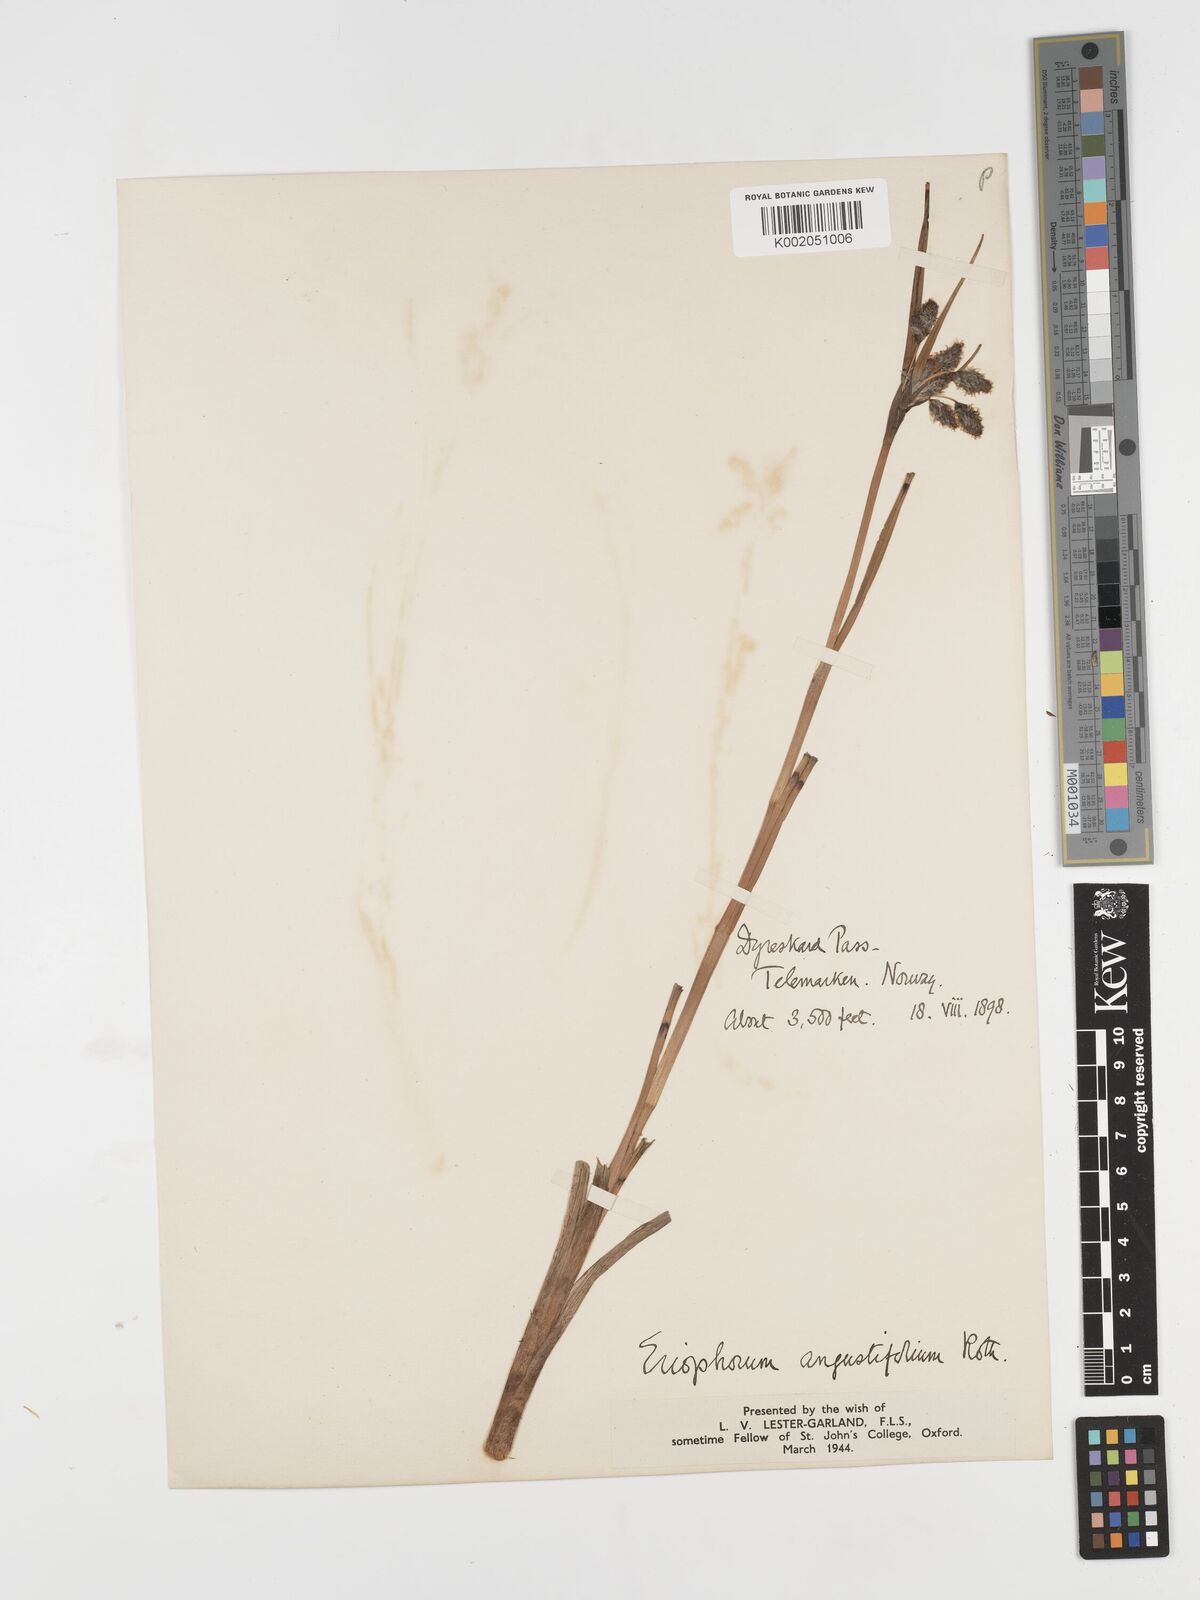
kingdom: Plantae
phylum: Tracheophyta
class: Liliopsida
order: Poales
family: Cyperaceae
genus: Eriophorum
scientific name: Eriophorum angustifolium
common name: Common cottongrass
